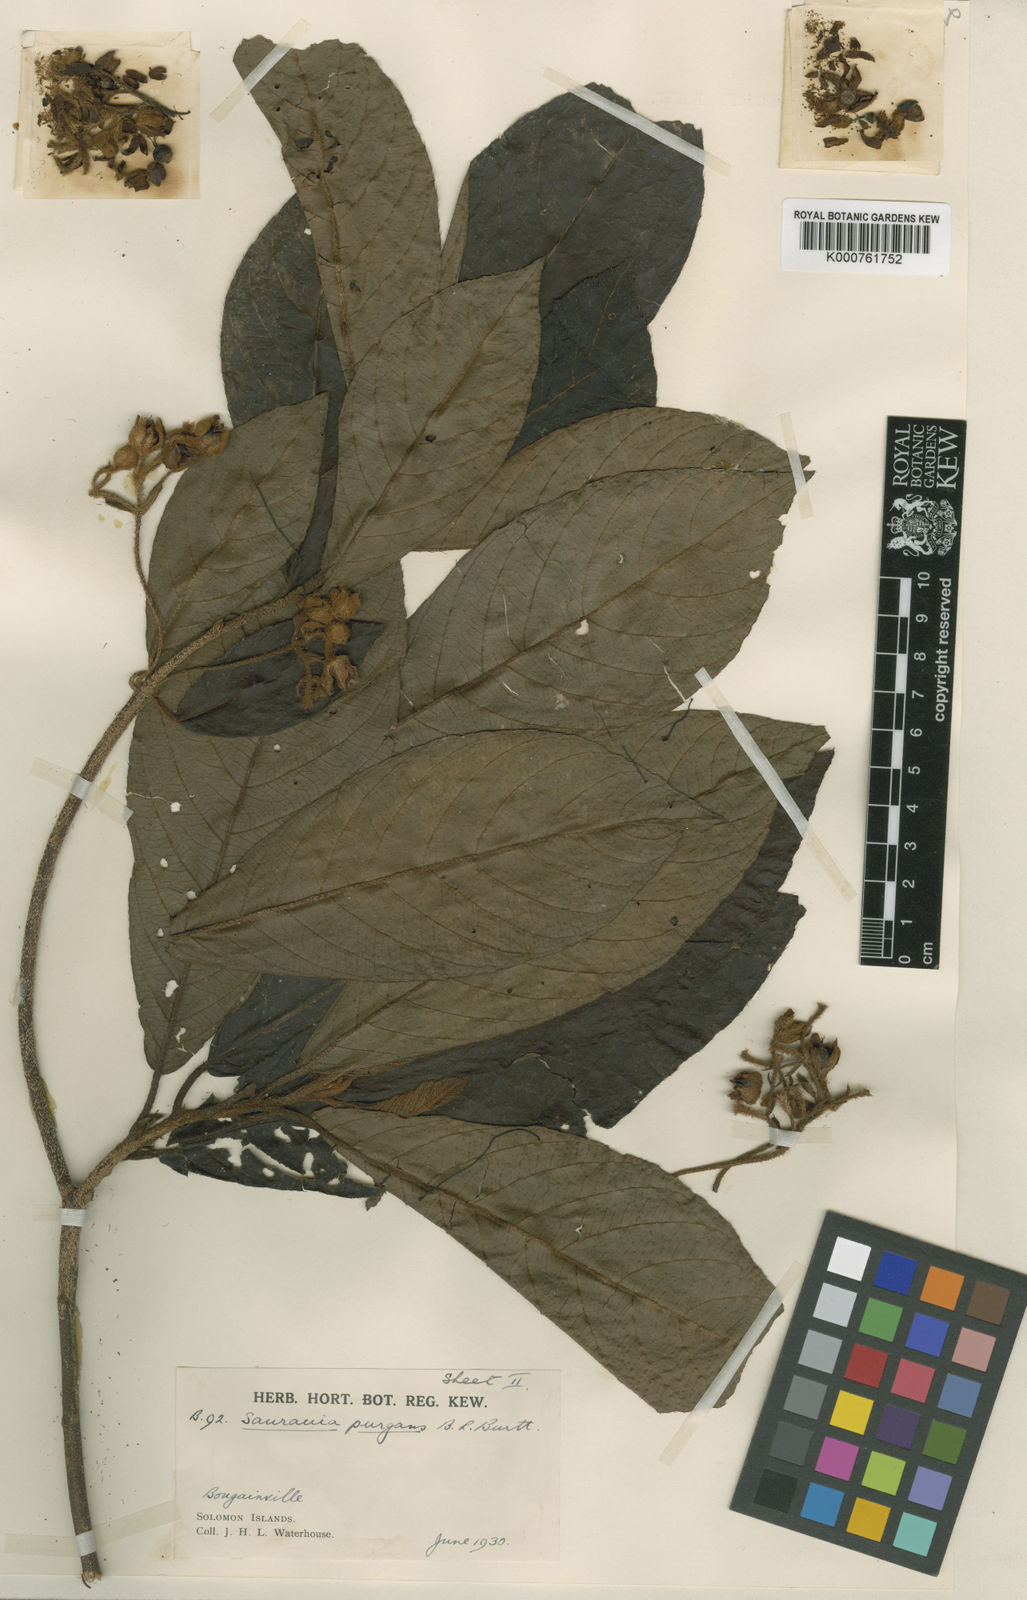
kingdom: Plantae
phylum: Tracheophyta
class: Magnoliopsida
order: Ericales
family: Actinidiaceae
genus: Saurauia
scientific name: Saurauia purgans
